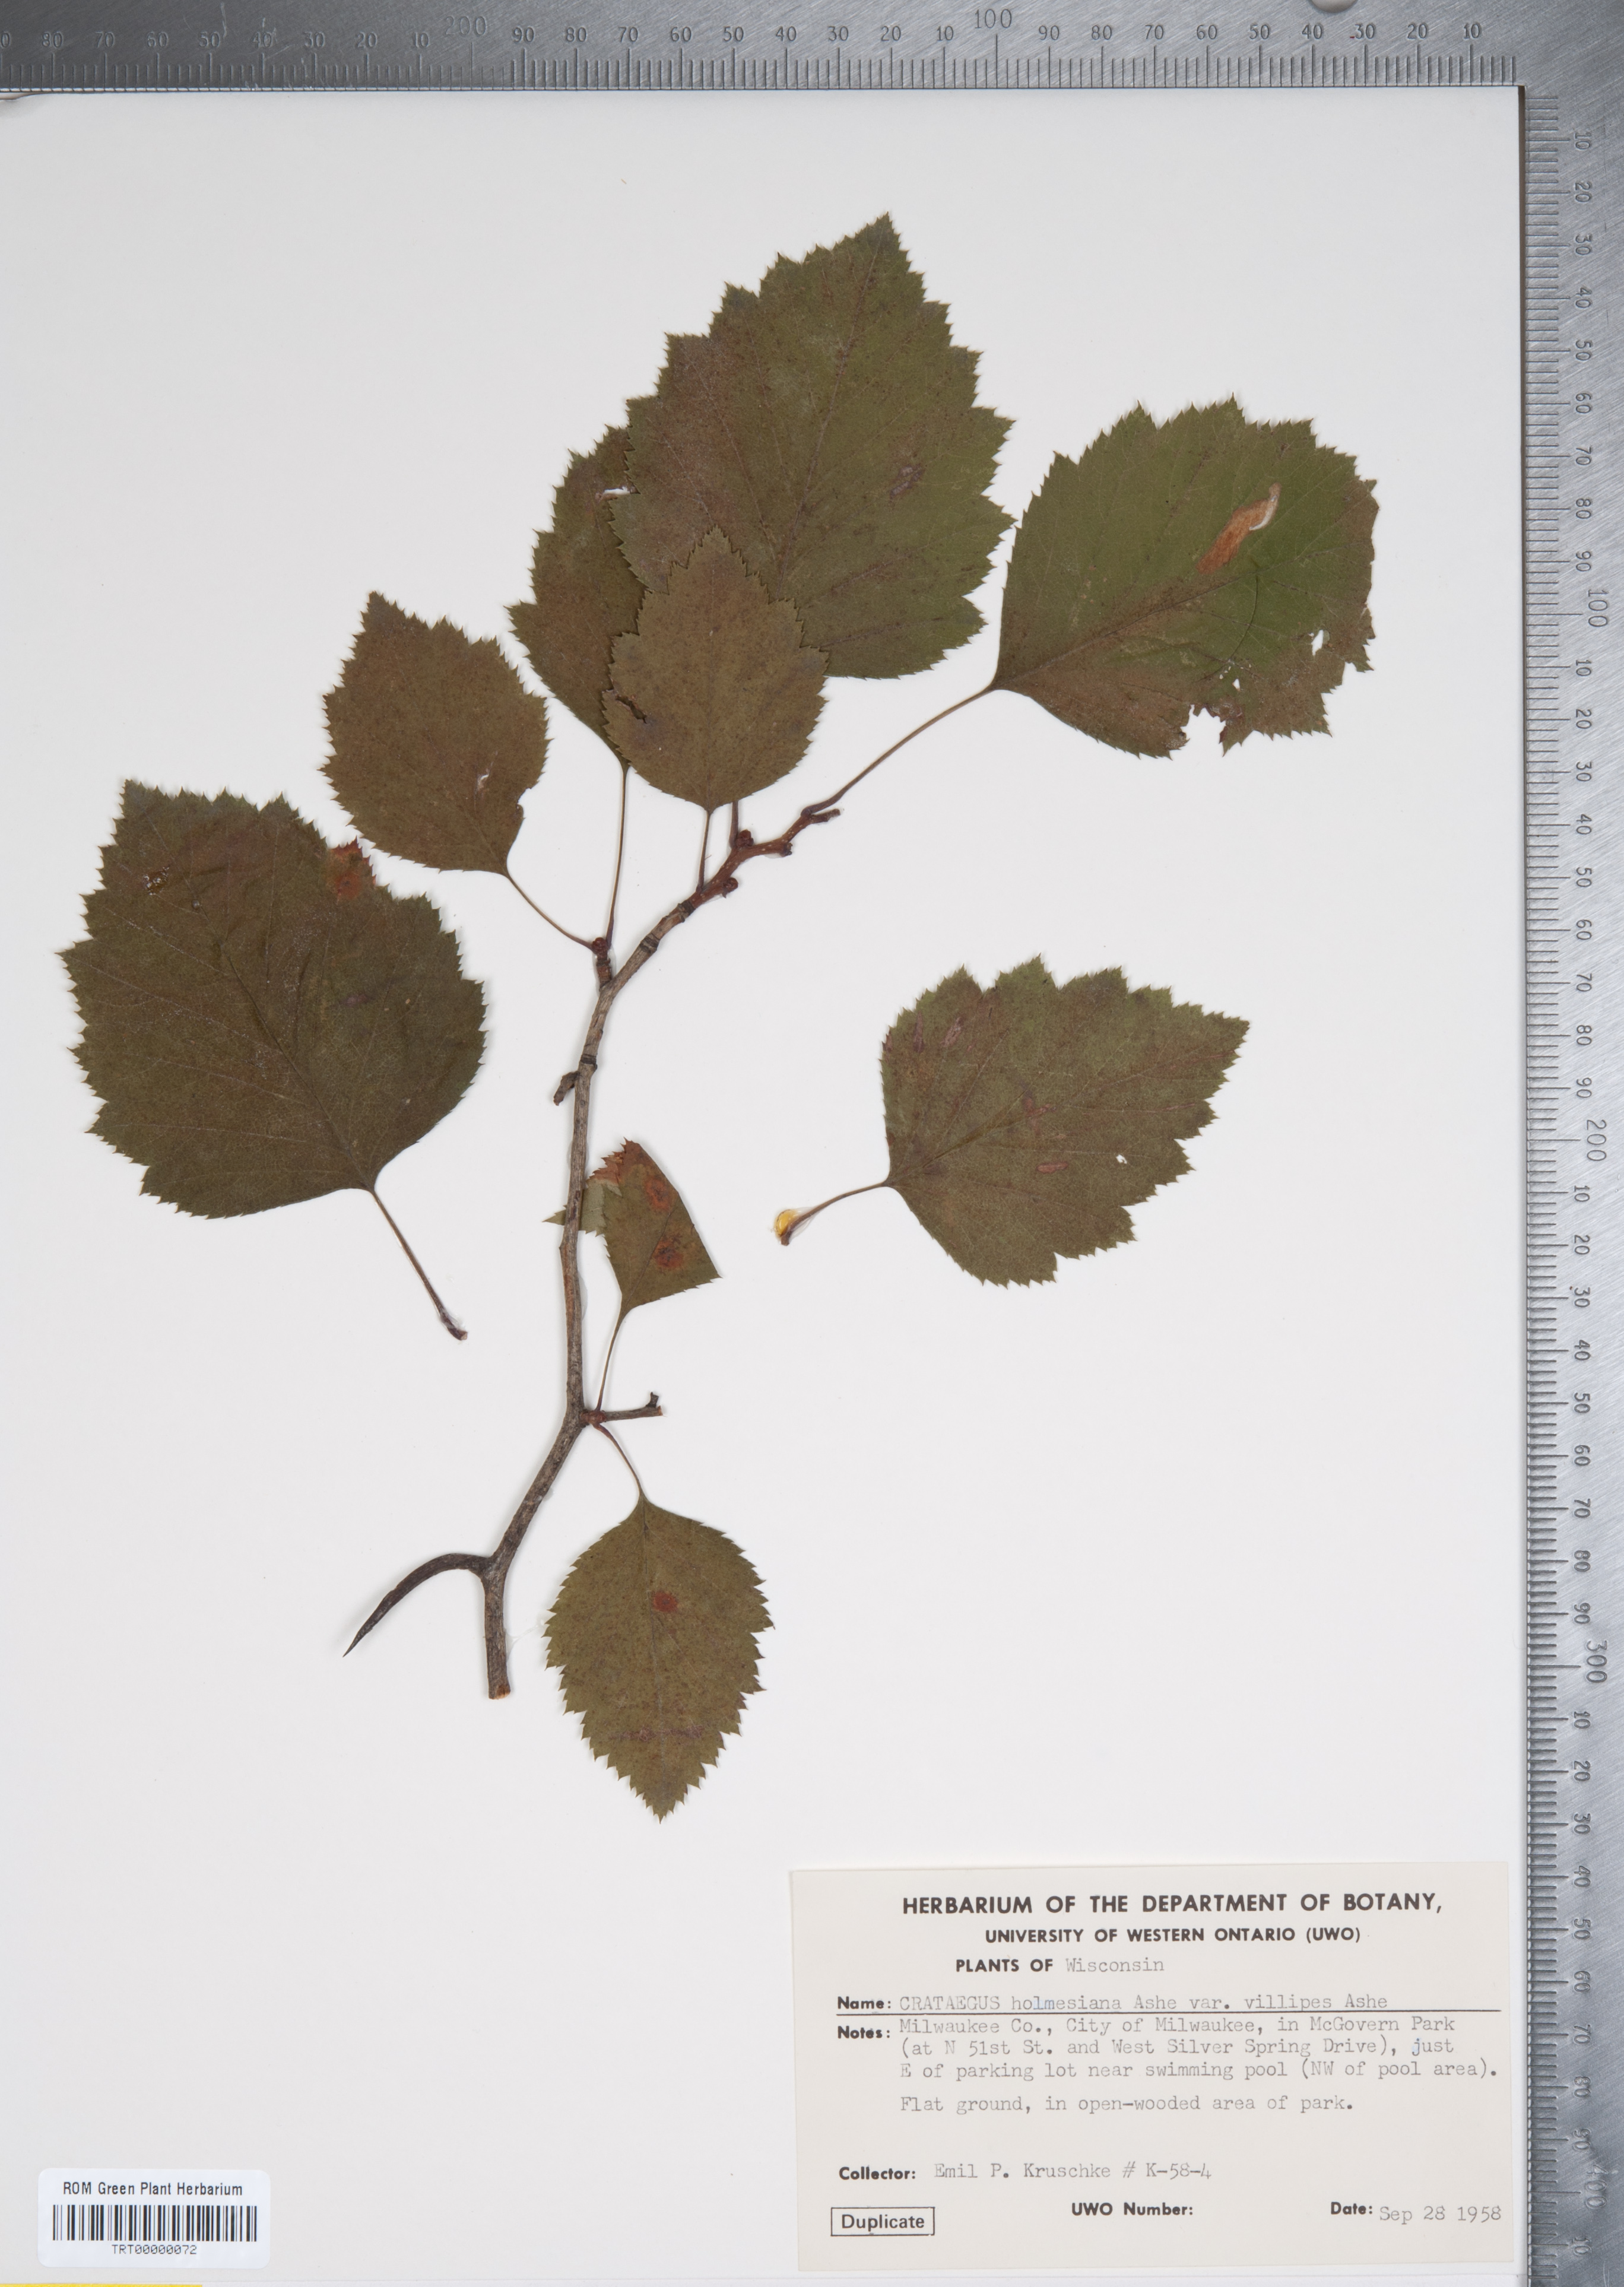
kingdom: Plantae
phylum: Tracheophyta
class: Magnoliopsida
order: Rosales
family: Rosaceae
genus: Crataegus
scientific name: Crataegus holmesiana
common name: Holmes' hawthorn
